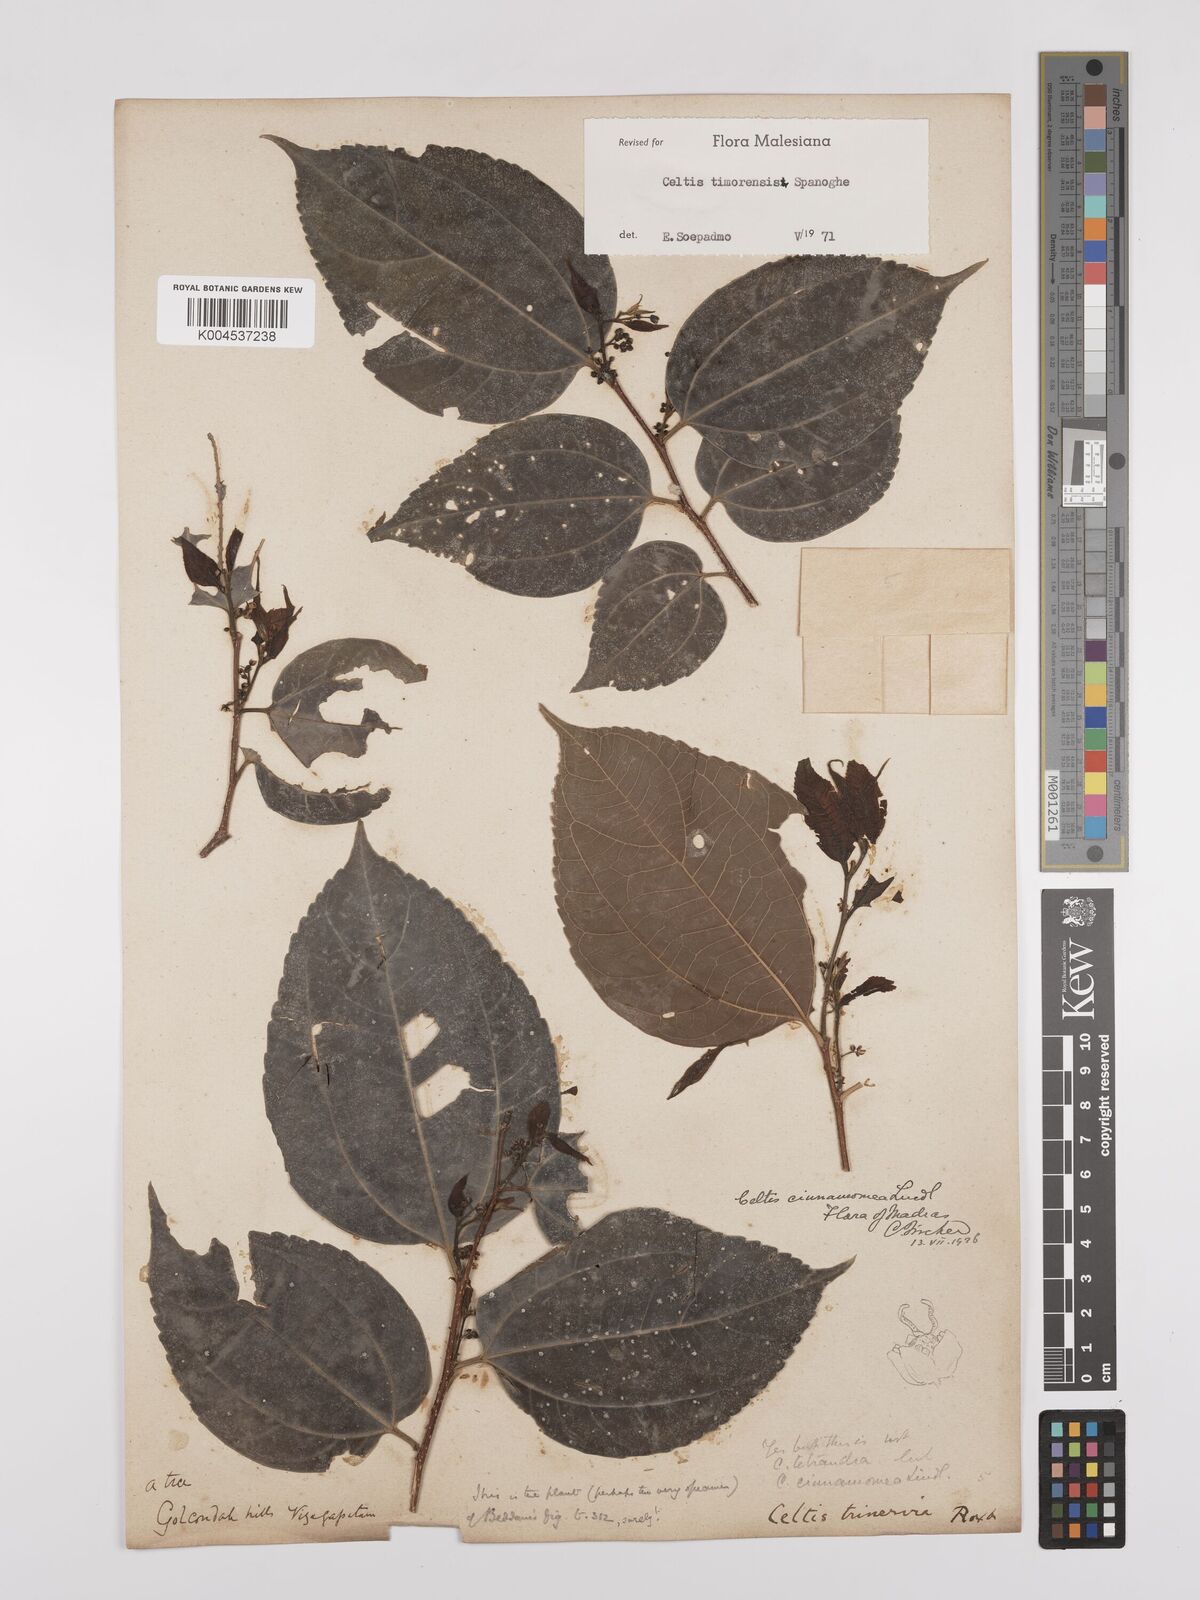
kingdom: Plantae
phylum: Tracheophyta
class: Magnoliopsida
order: Rosales
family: Cannabaceae
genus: Celtis
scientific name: Celtis timorensis
